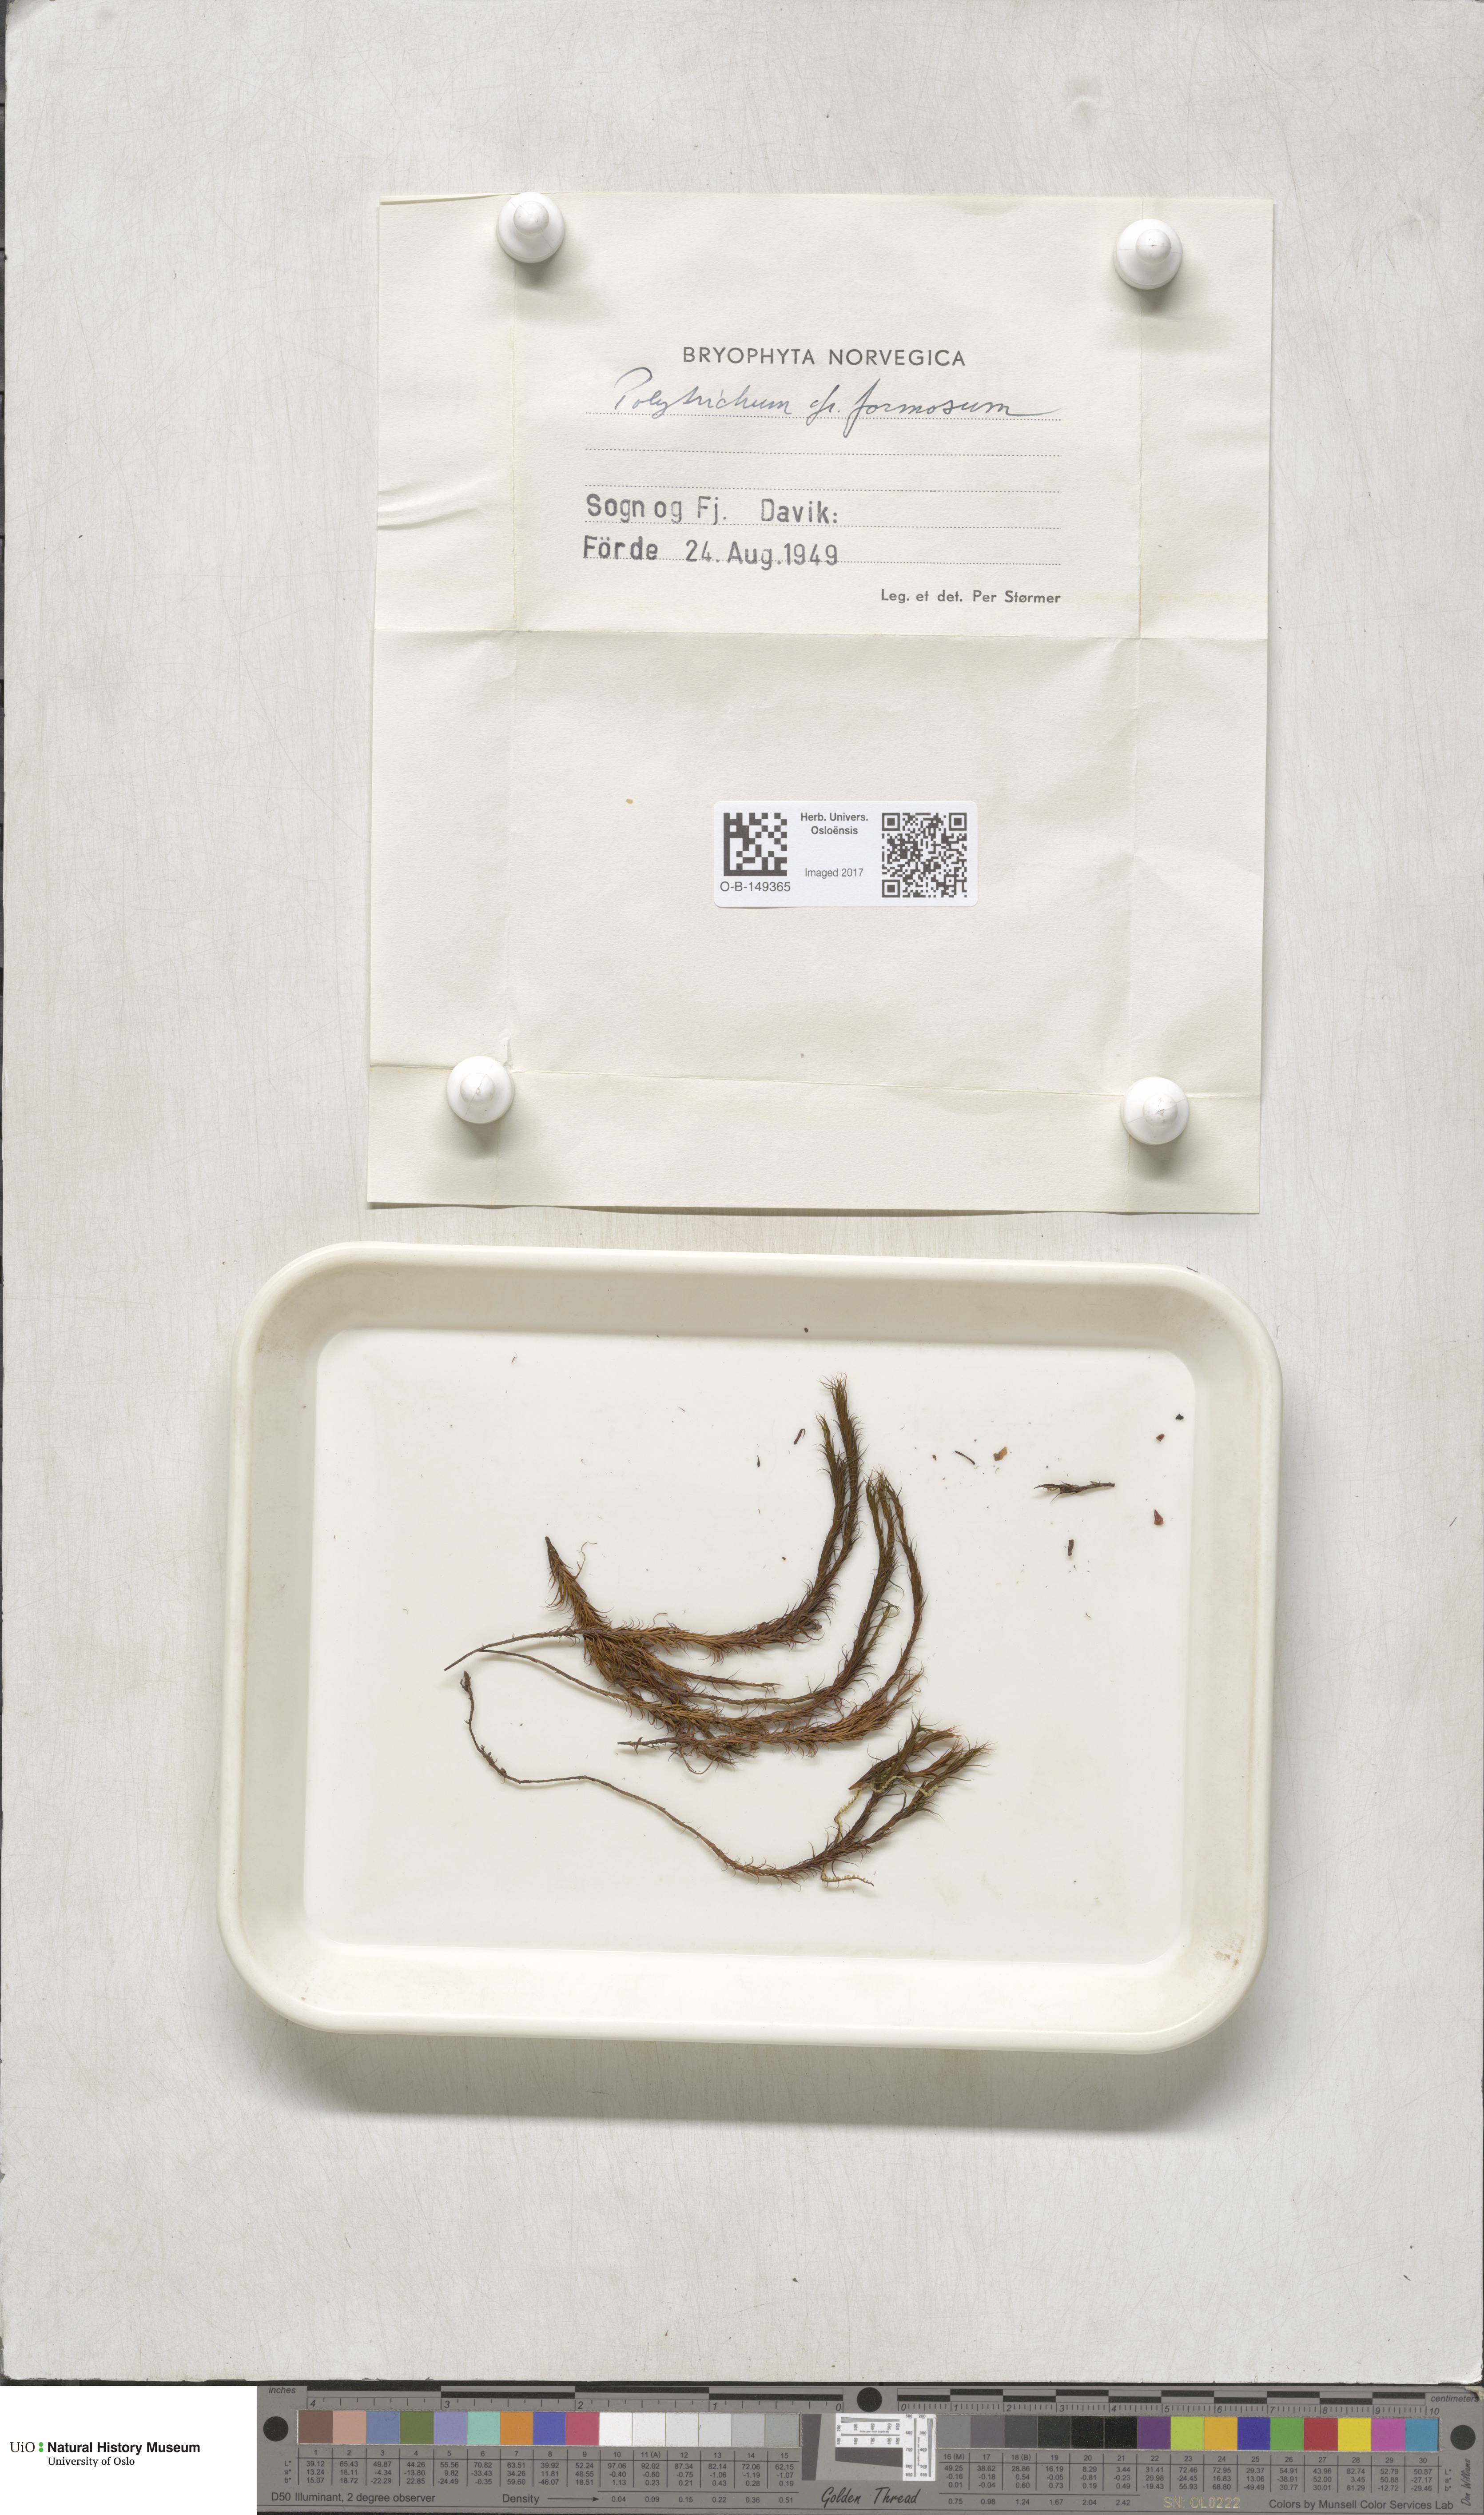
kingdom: Plantae
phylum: Bryophyta
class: Polytrichopsida
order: Polytrichales
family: Polytrichaceae
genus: Polytrichum
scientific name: Polytrichum formosum
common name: Bank haircap moss
